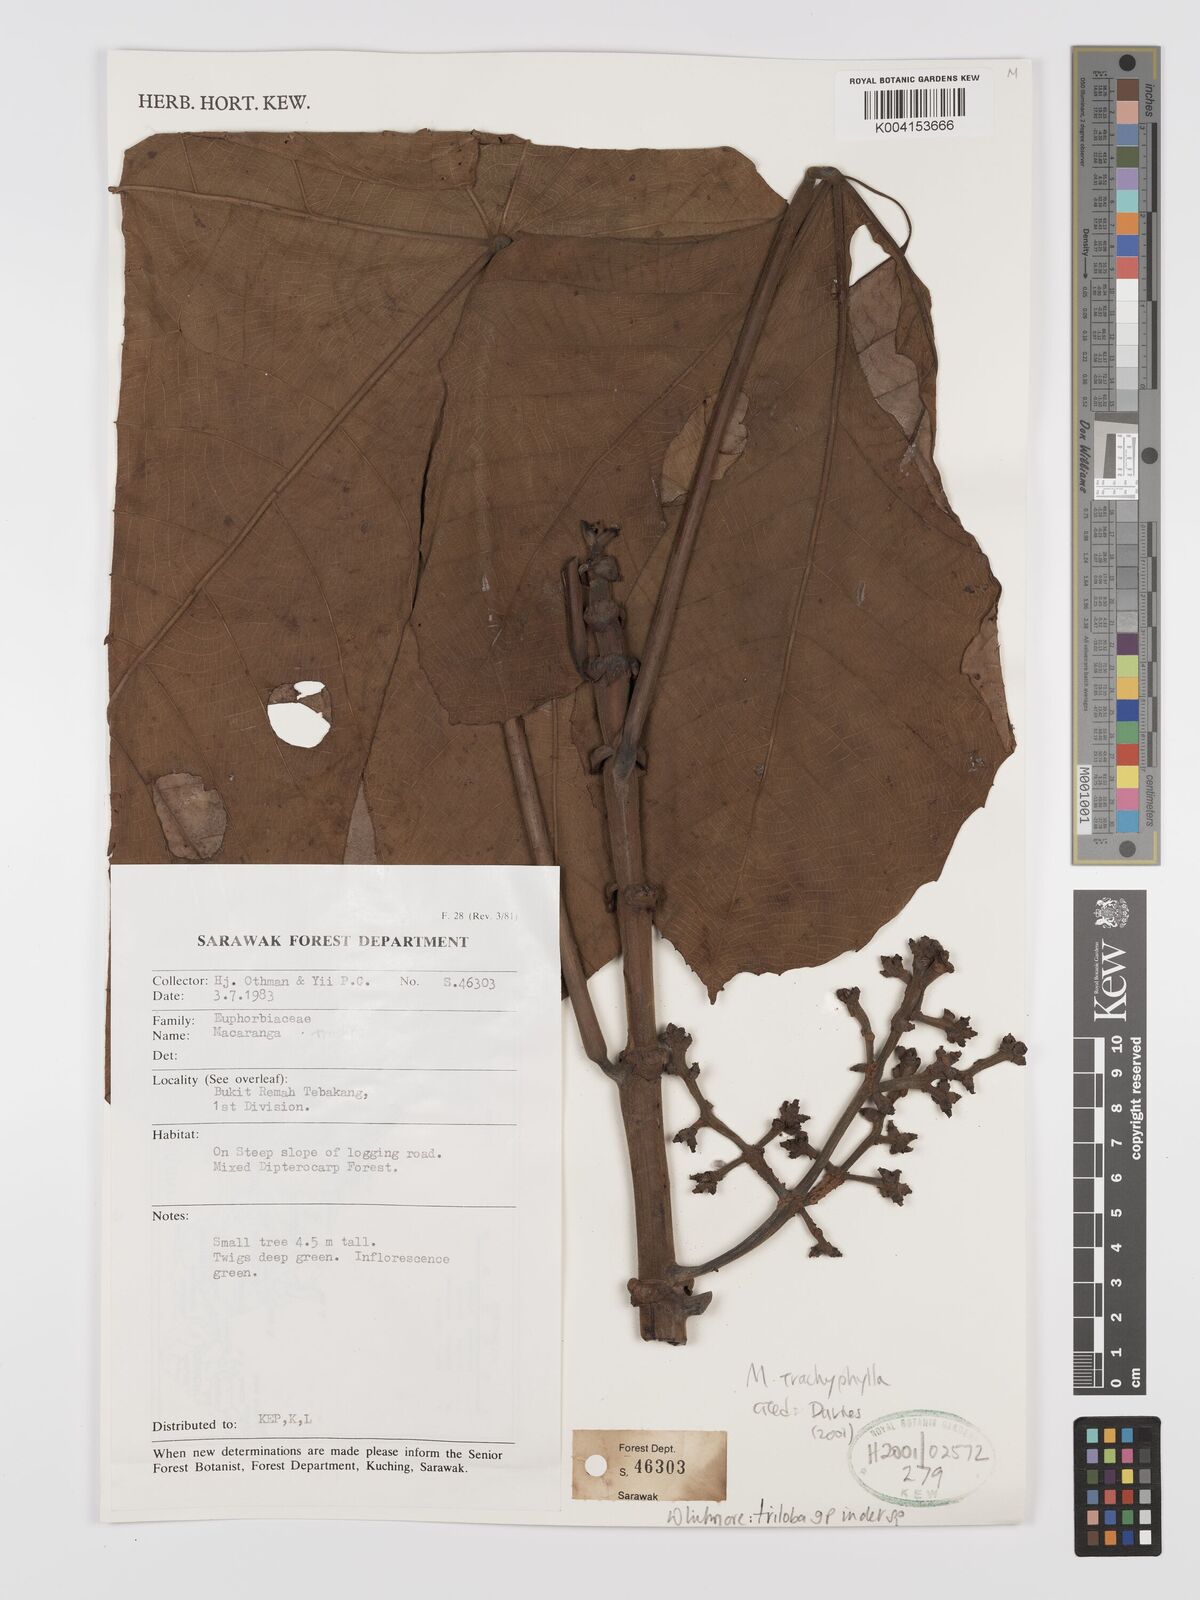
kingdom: Plantae
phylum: Tracheophyta
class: Magnoliopsida
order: Malpighiales
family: Euphorbiaceae
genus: Macaranga
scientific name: Macaranga triloba
